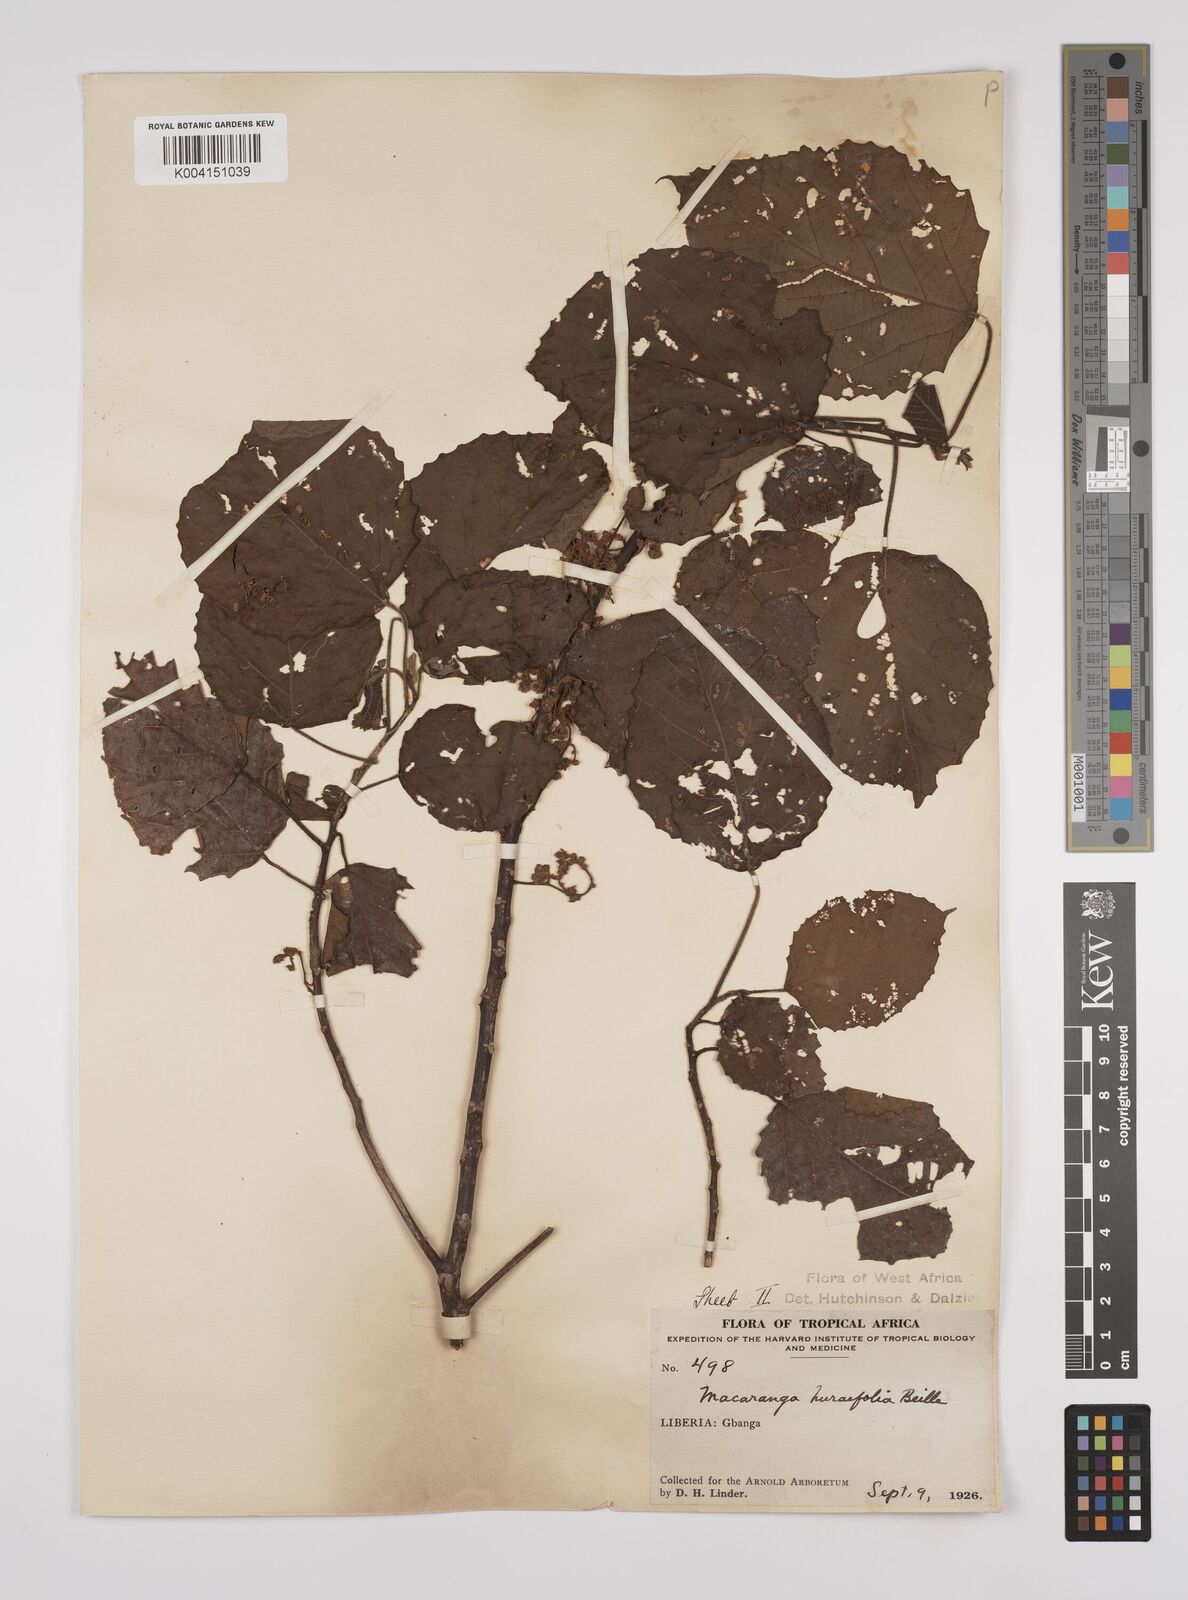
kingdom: Plantae
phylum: Tracheophyta
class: Magnoliopsida
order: Malpighiales
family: Euphorbiaceae
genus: Macaranga
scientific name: Macaranga hurifolia
